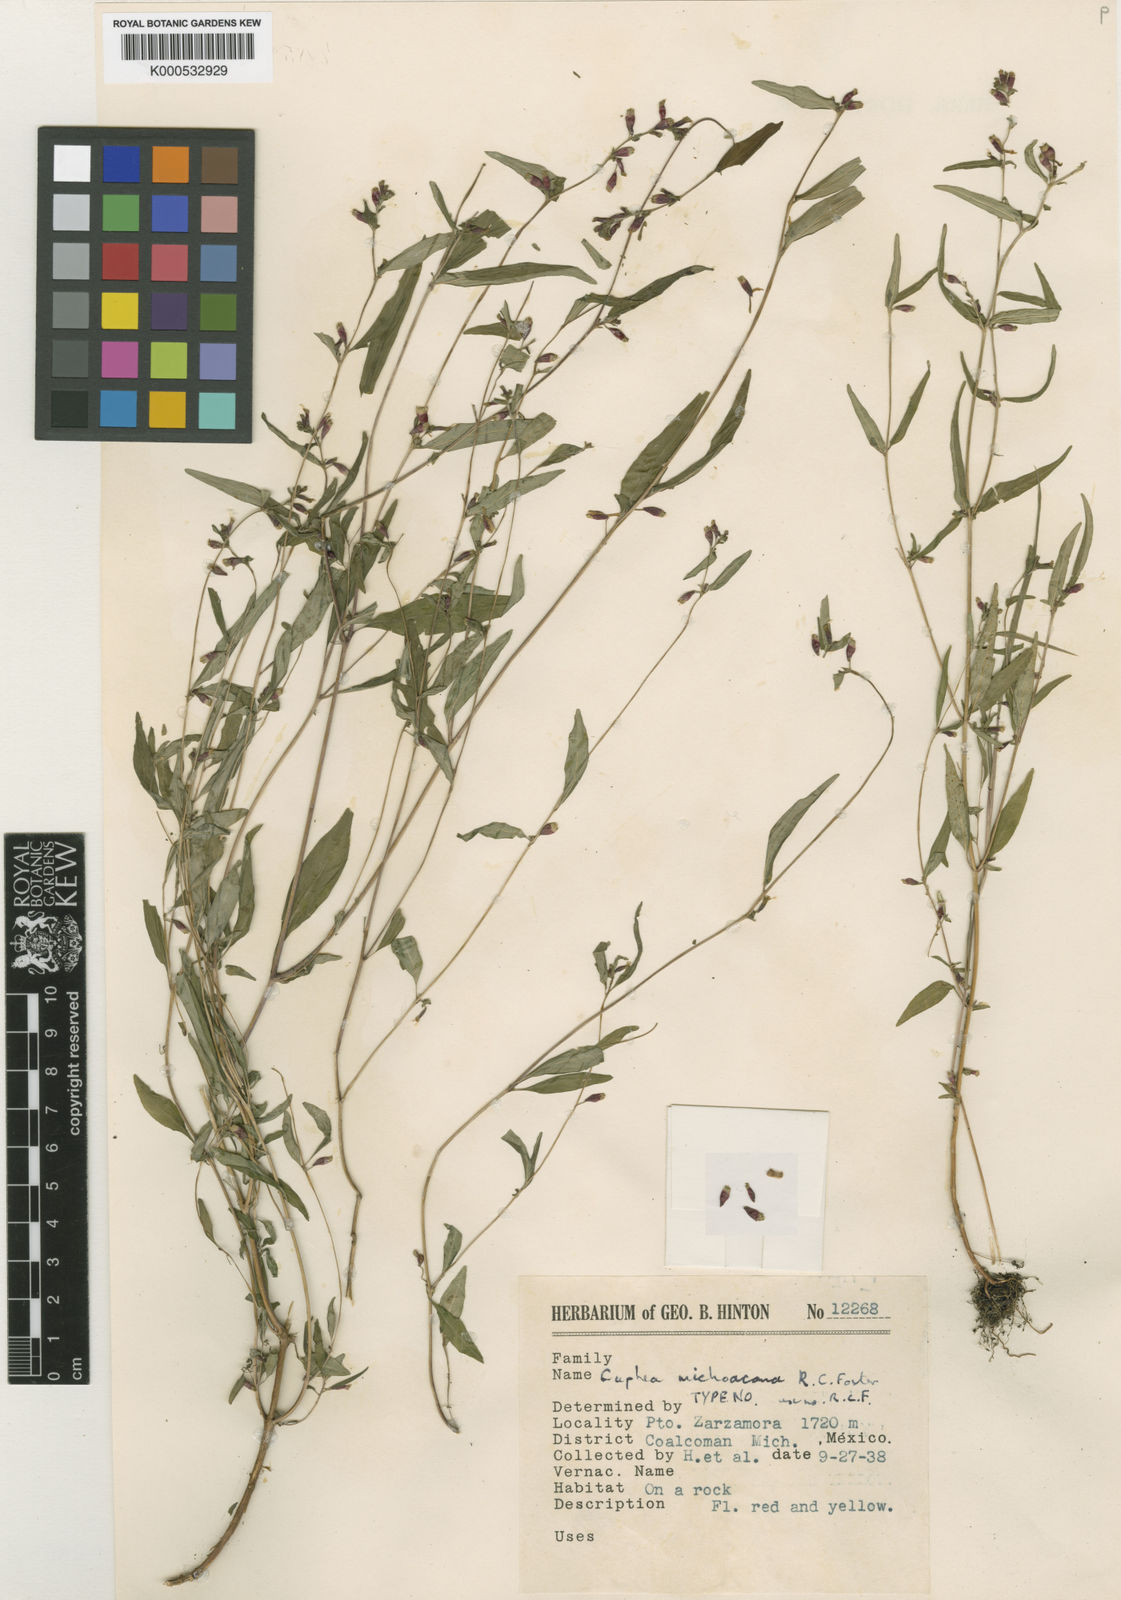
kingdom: Plantae
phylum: Tracheophyta
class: Magnoliopsida
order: Myrtales
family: Lythraceae
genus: Cuphea
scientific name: Cuphea michoacana
